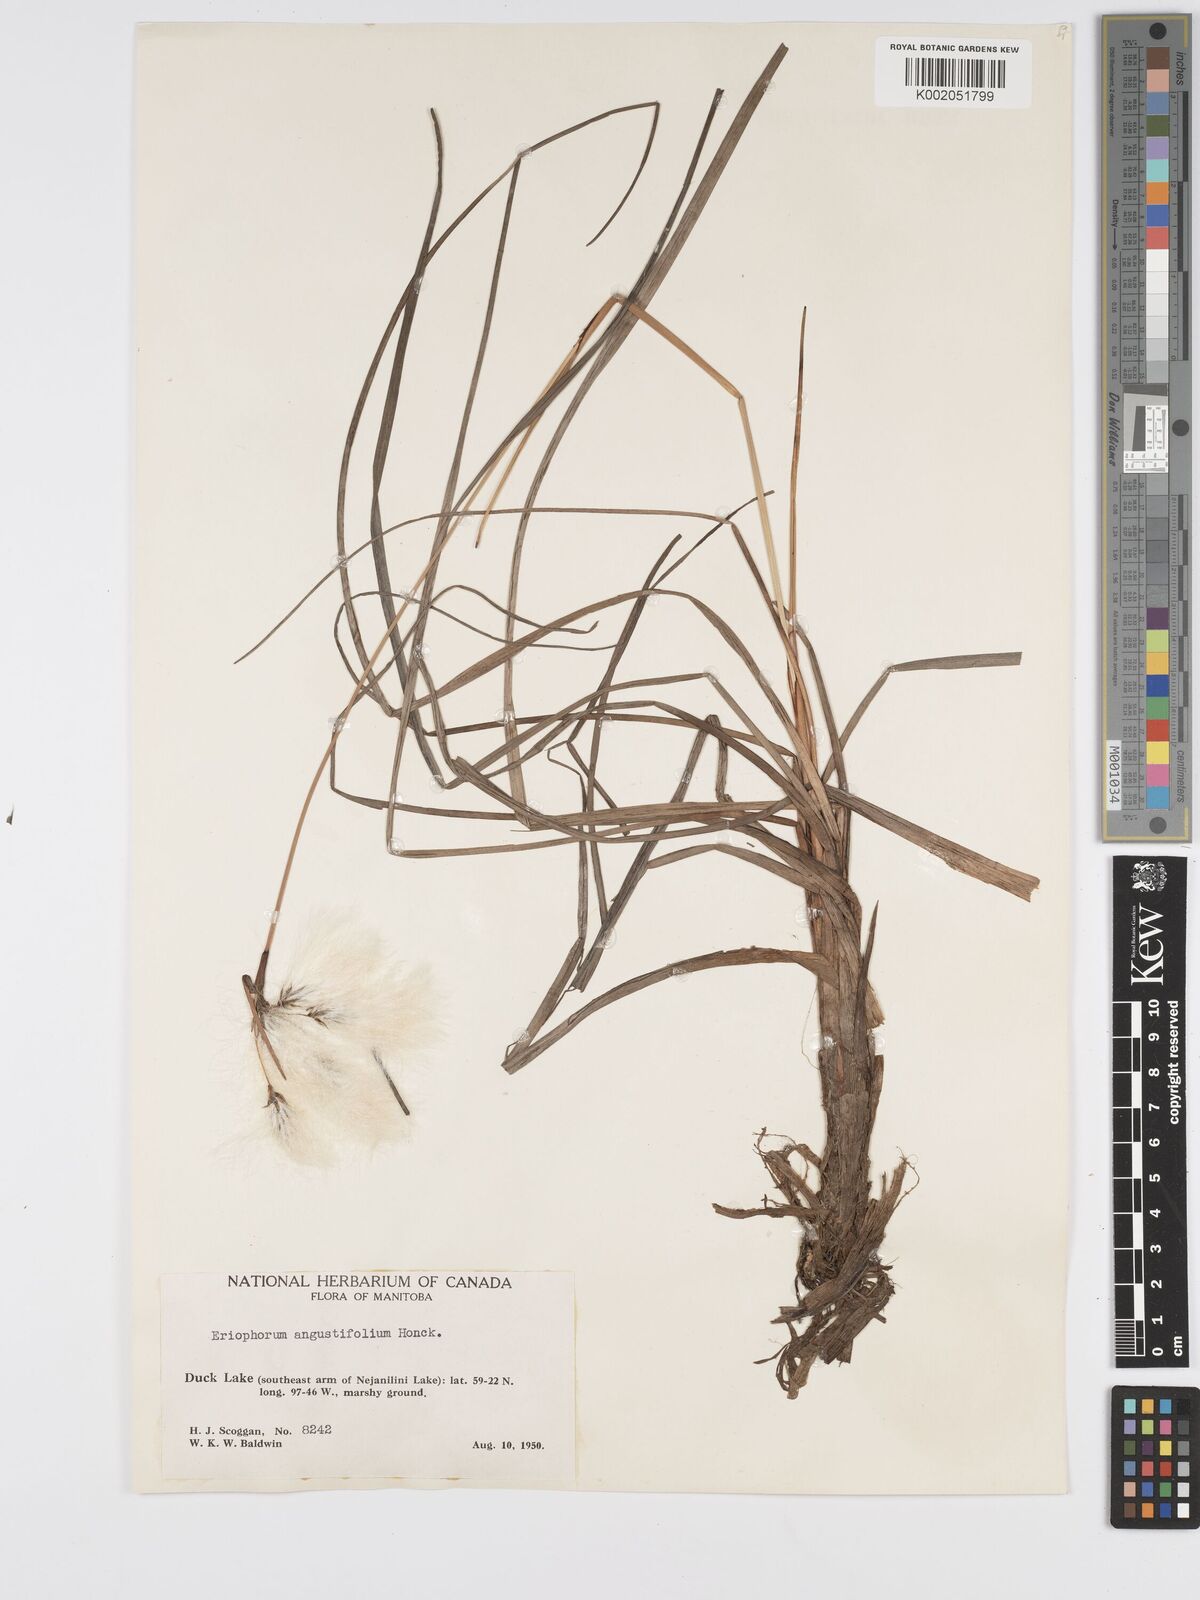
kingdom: Plantae
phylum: Tracheophyta
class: Liliopsida
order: Poales
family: Cyperaceae
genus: Eriophorum
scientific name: Eriophorum angustifolium
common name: Common cottongrass
